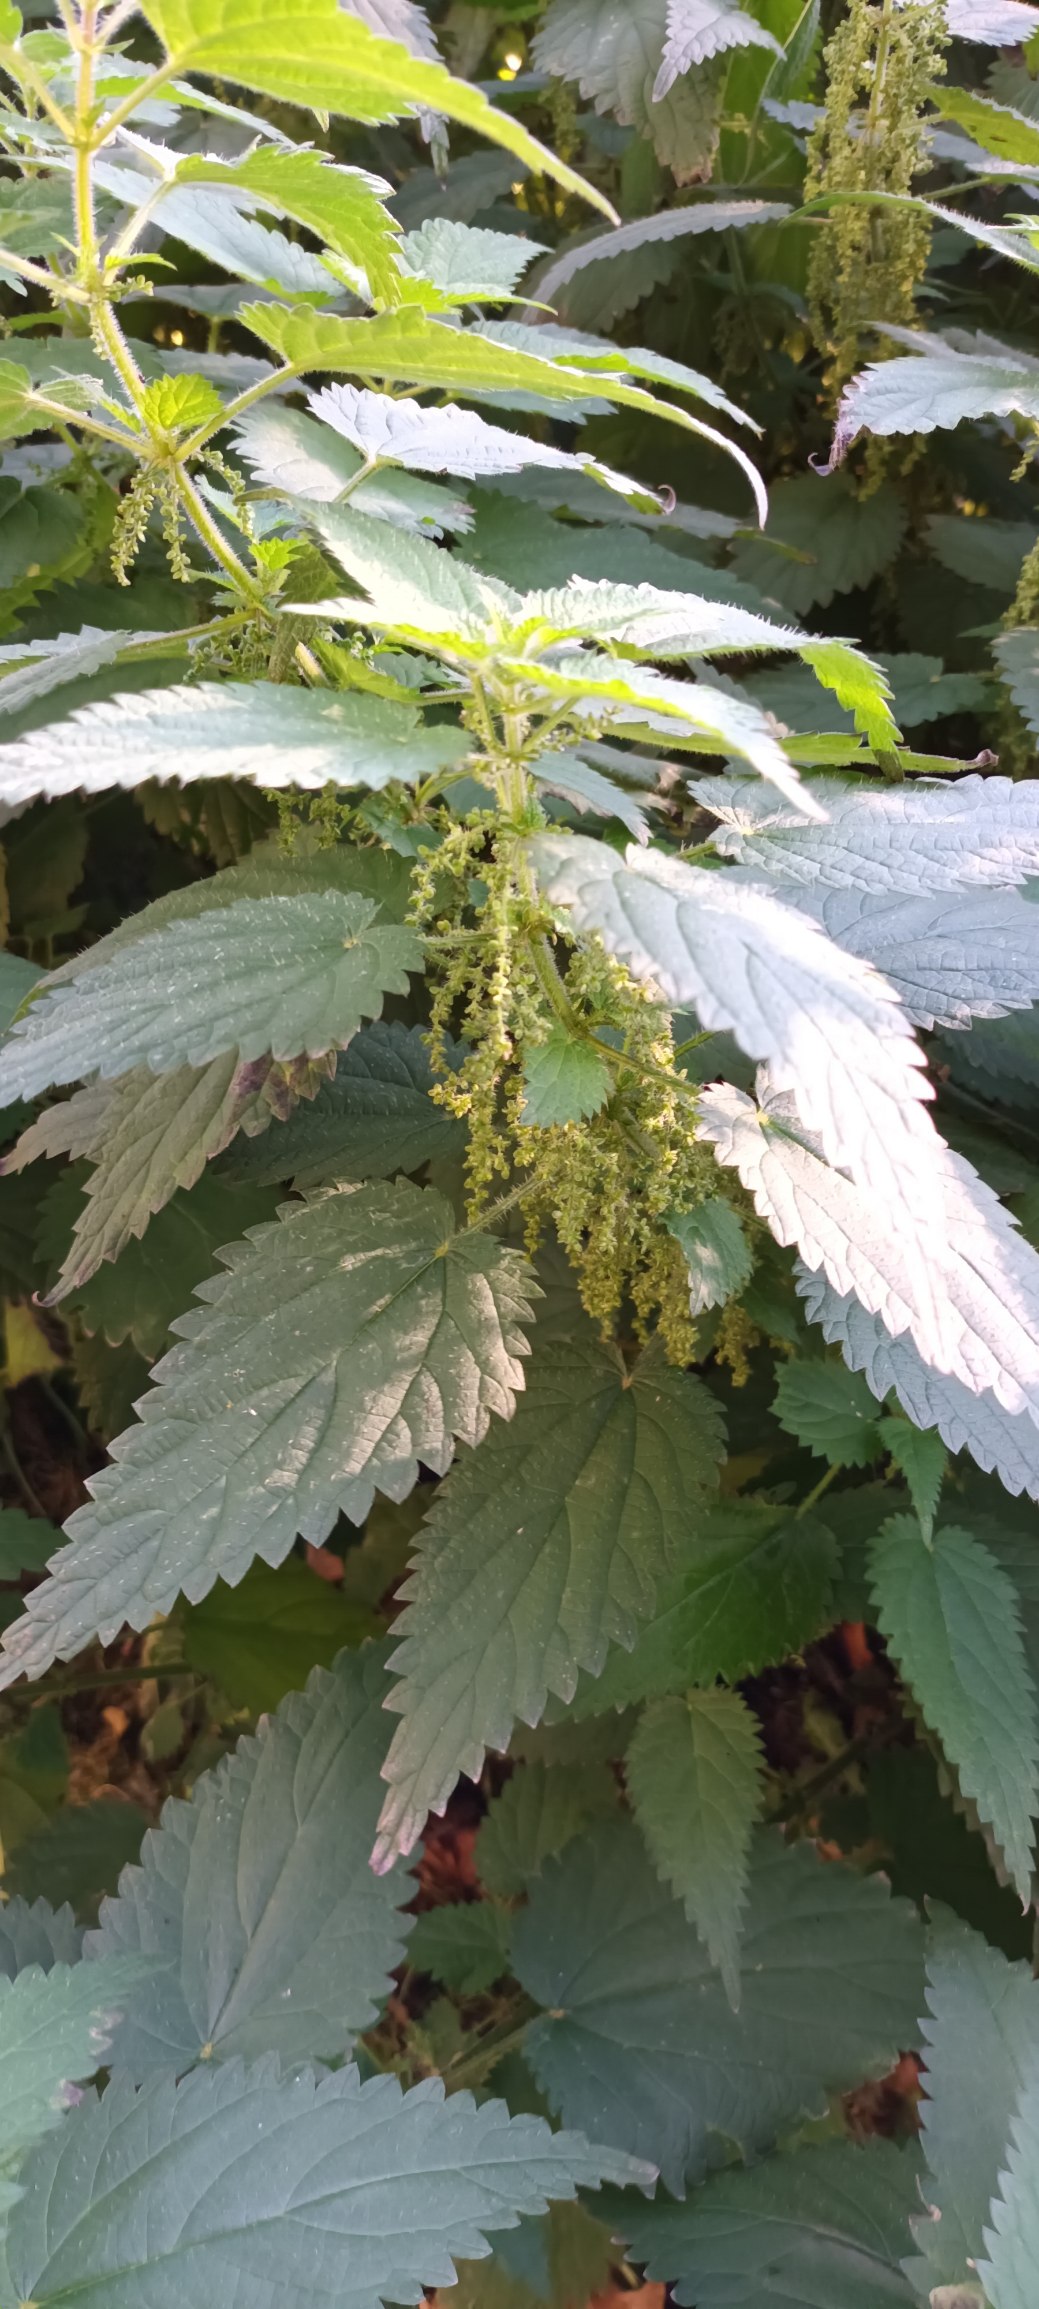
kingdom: Plantae
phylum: Tracheophyta
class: Magnoliopsida
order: Rosales
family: Urticaceae
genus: Urtica
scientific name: Urtica dioica
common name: Stor nælde
